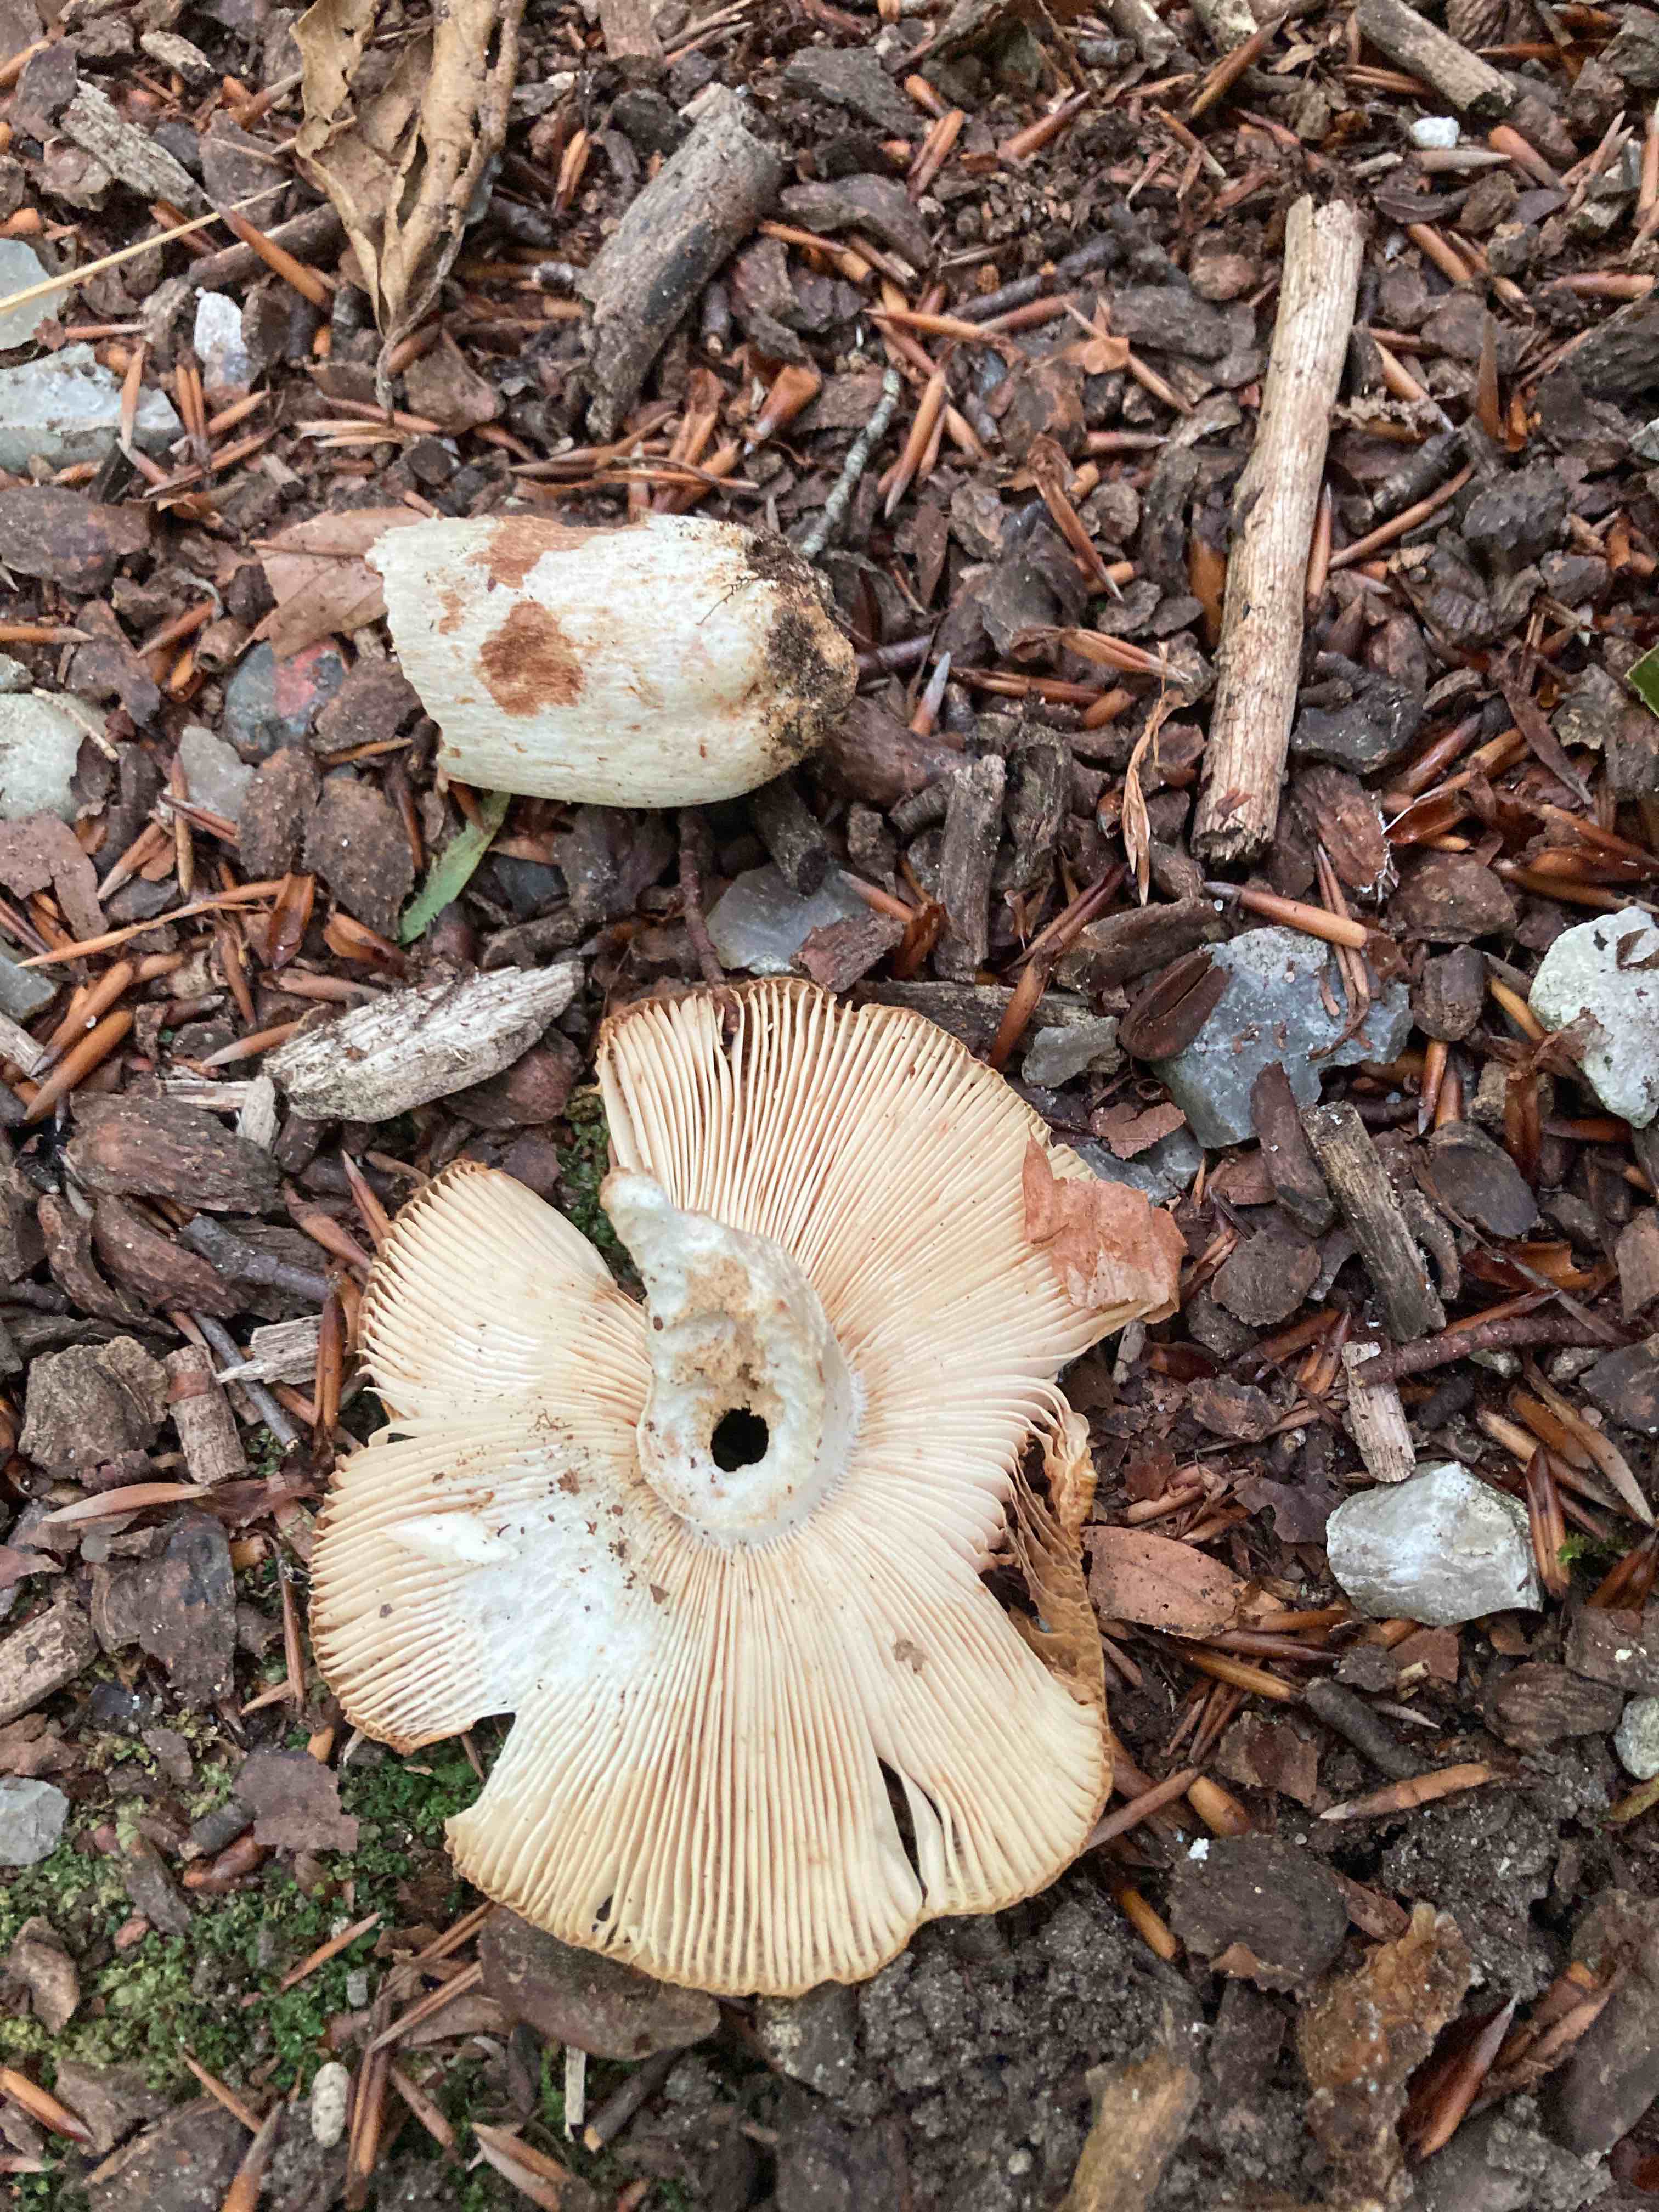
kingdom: Fungi
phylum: Basidiomycota
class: Agaricomycetes
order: Russulales
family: Russulaceae
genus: Russula
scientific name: Russula foetens
